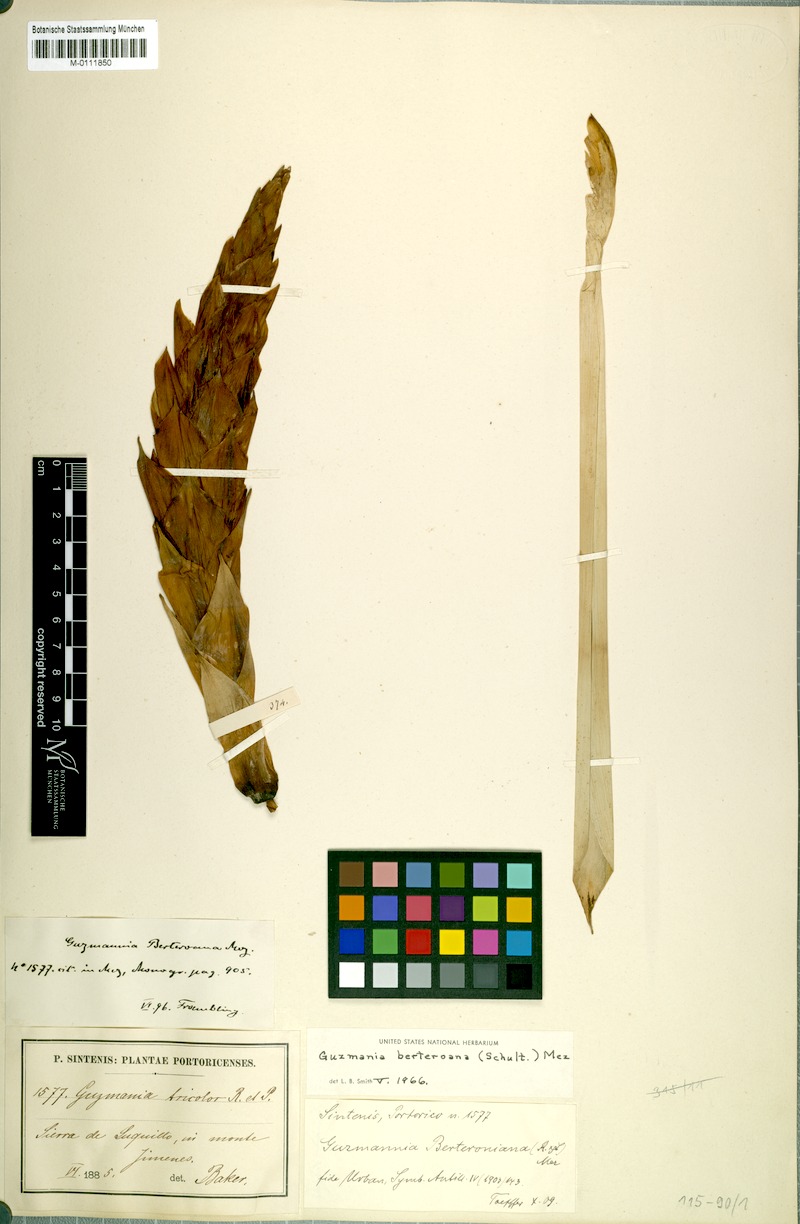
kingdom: Plantae
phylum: Tracheophyta
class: Liliopsida
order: Poales
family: Bromeliaceae
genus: Guzmania
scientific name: Guzmania berteroniana
